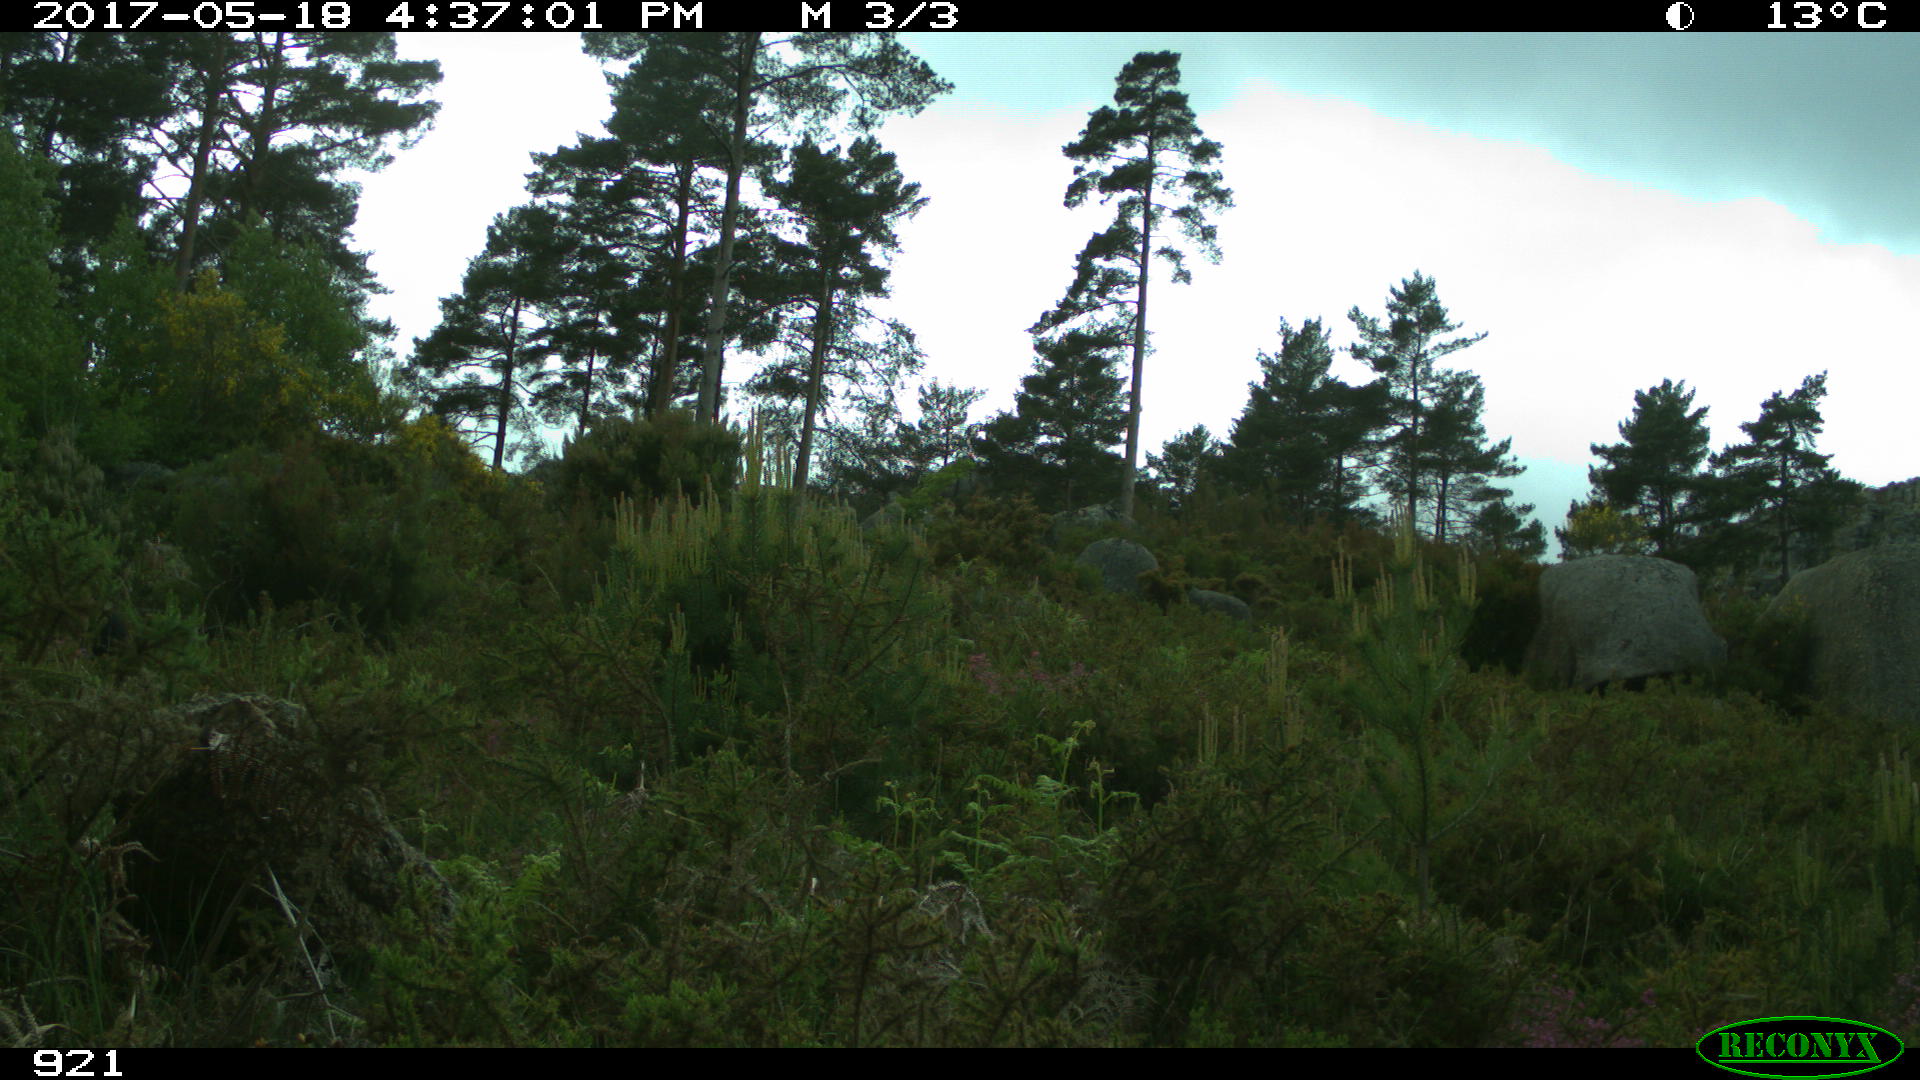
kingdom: Animalia
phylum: Chordata
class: Mammalia
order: Perissodactyla
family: Equidae
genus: Equus
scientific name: Equus caballus
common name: Horse
